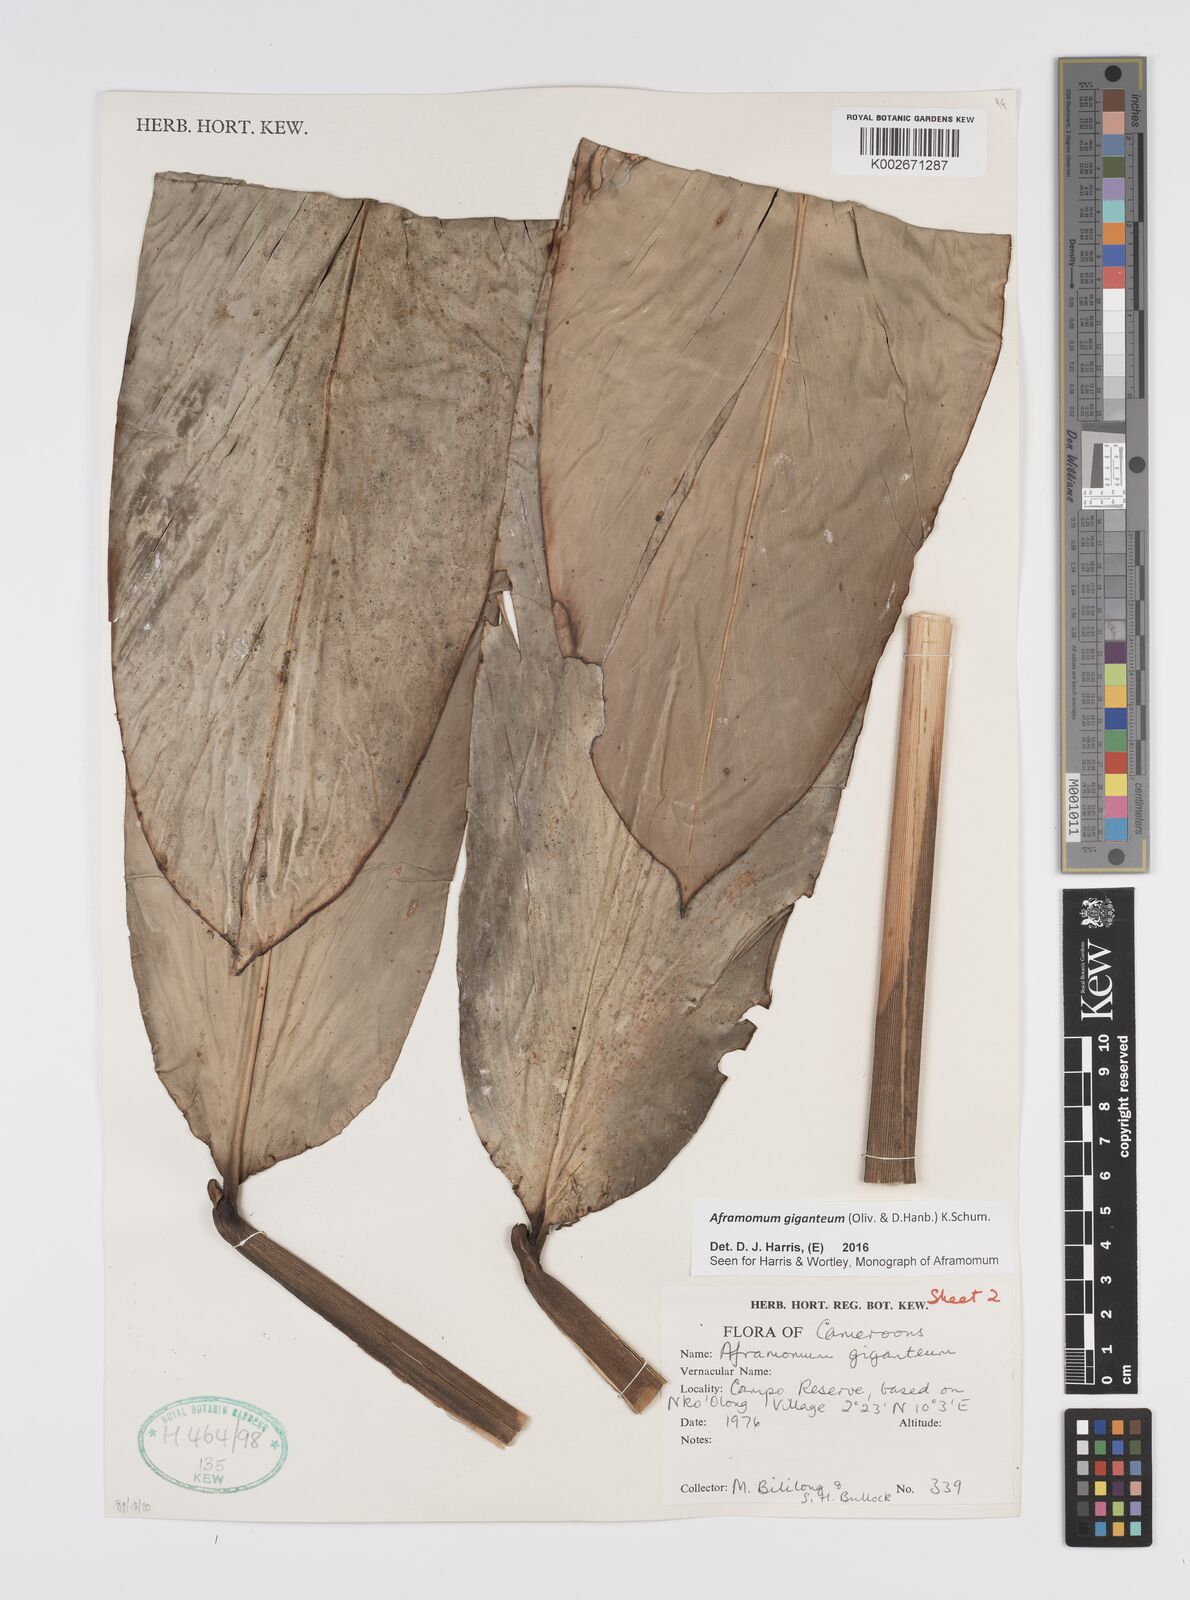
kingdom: Plantae
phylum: Tracheophyta
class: Liliopsida
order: Zingiberales
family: Zingiberaceae
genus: Aframomum
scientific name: Aframomum giganteum
